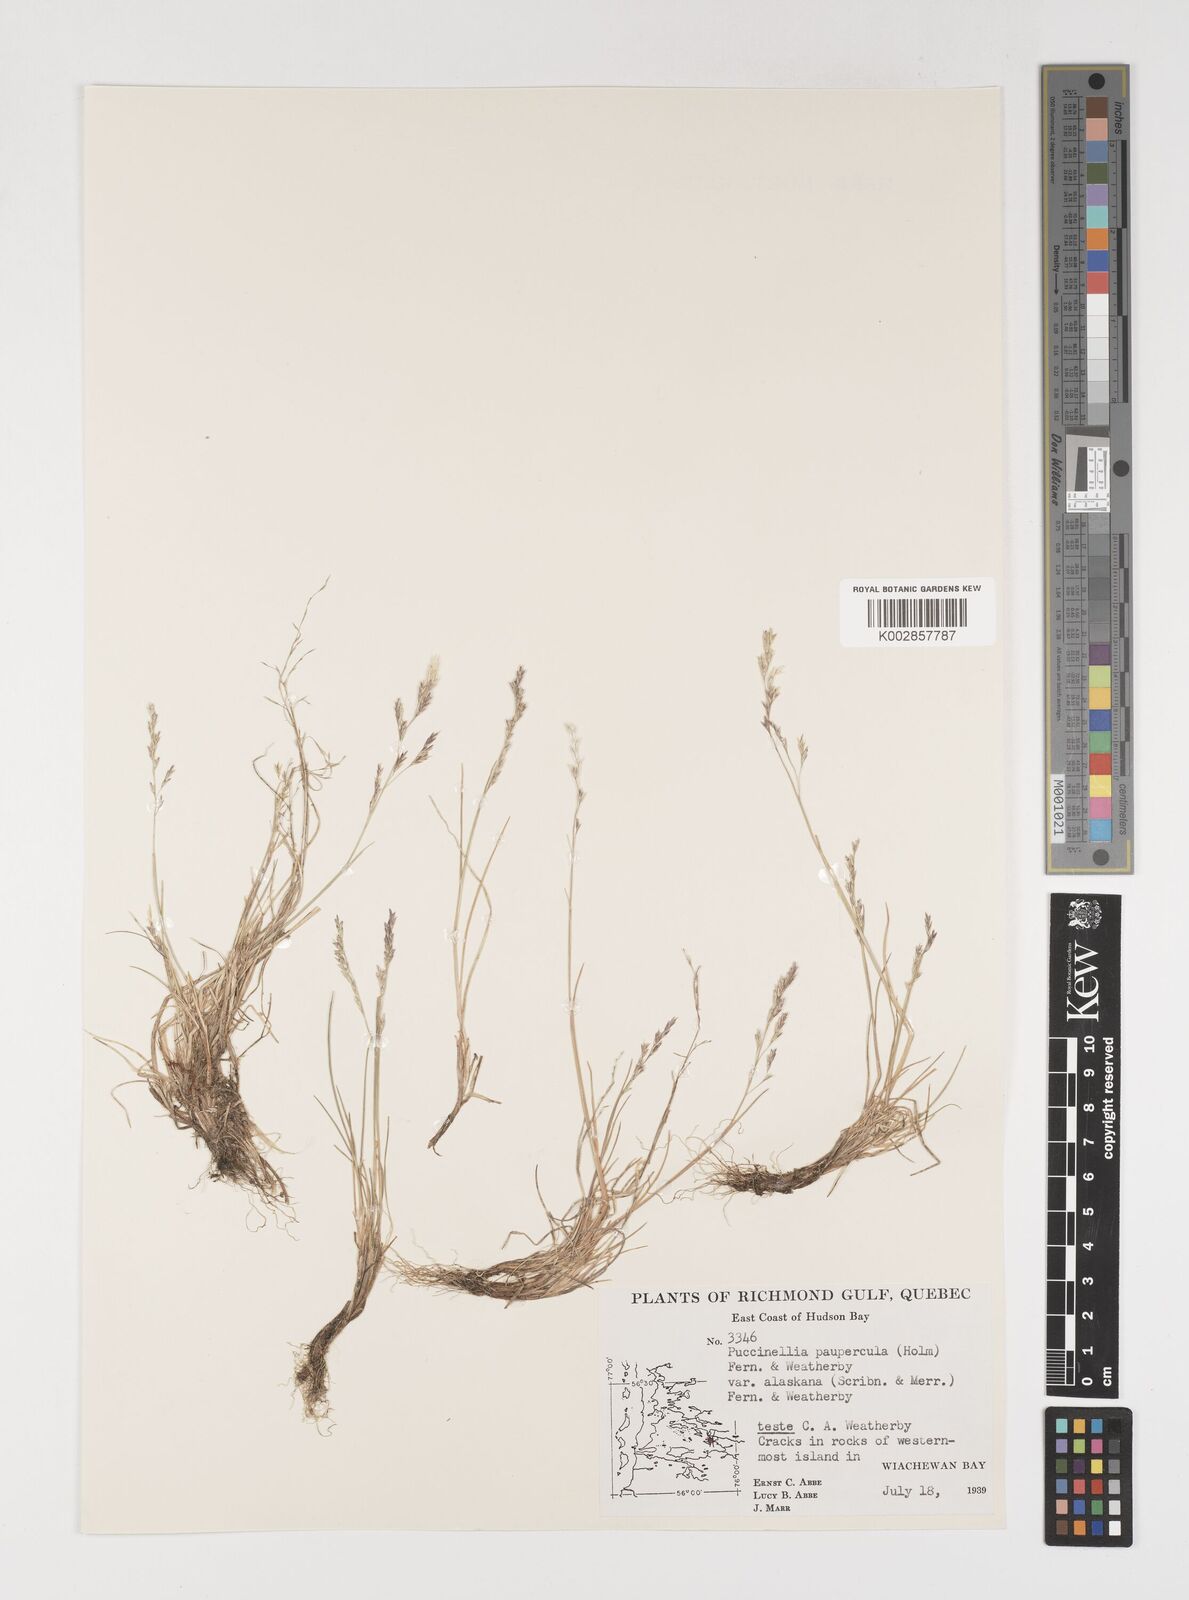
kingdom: Plantae
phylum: Tracheophyta
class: Liliopsida
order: Poales
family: Poaceae
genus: Puccinellia
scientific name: Puccinellia pumila
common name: Dwarf alkaligrass
